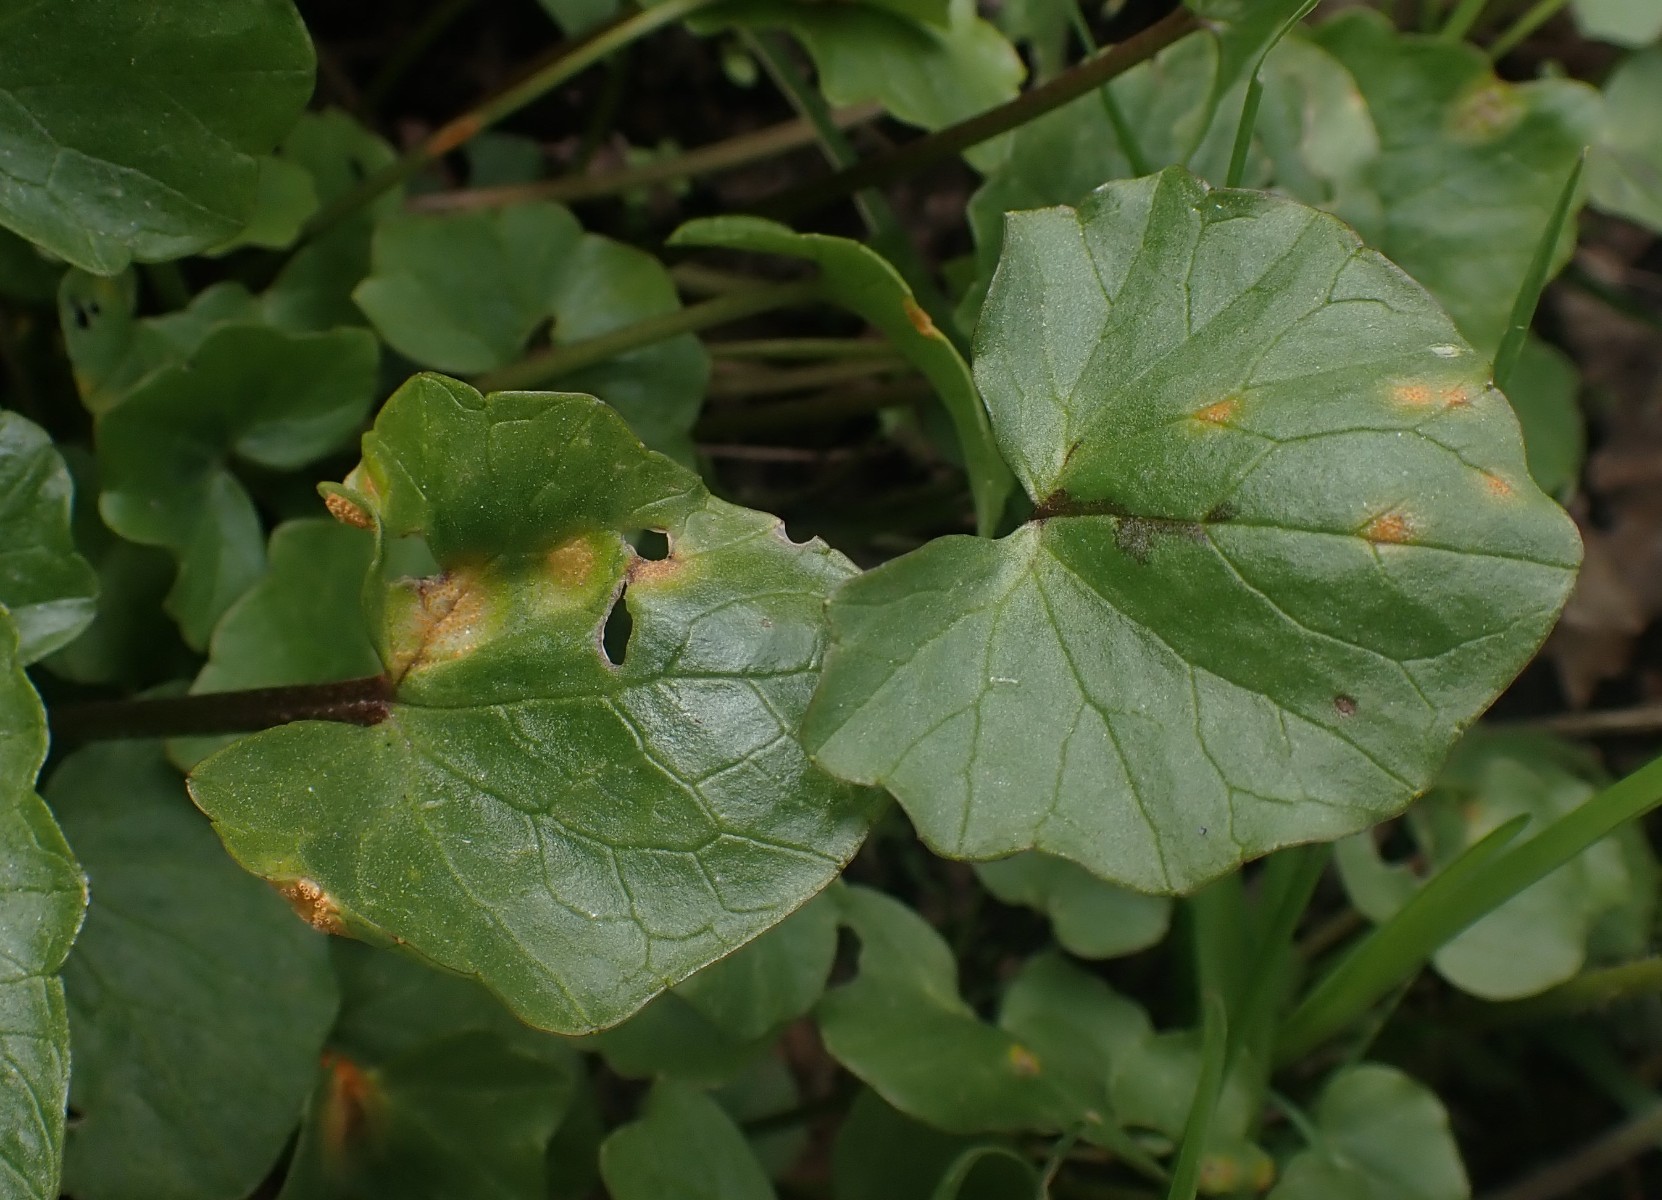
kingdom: Fungi
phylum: Basidiomycota
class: Pucciniomycetes
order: Pucciniales
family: Pucciniaceae
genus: Uromyces
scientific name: Uromyces dactylidis
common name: ranunkel-encellerust
